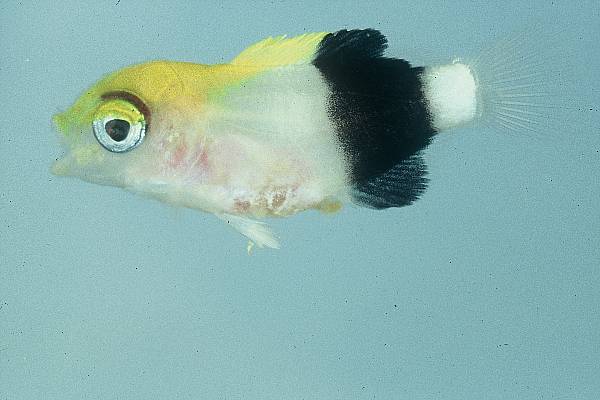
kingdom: Animalia
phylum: Chordata
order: Perciformes
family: Labridae
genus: Bodianus
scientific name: Bodianus bilunulatus
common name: Tarry hogfish
